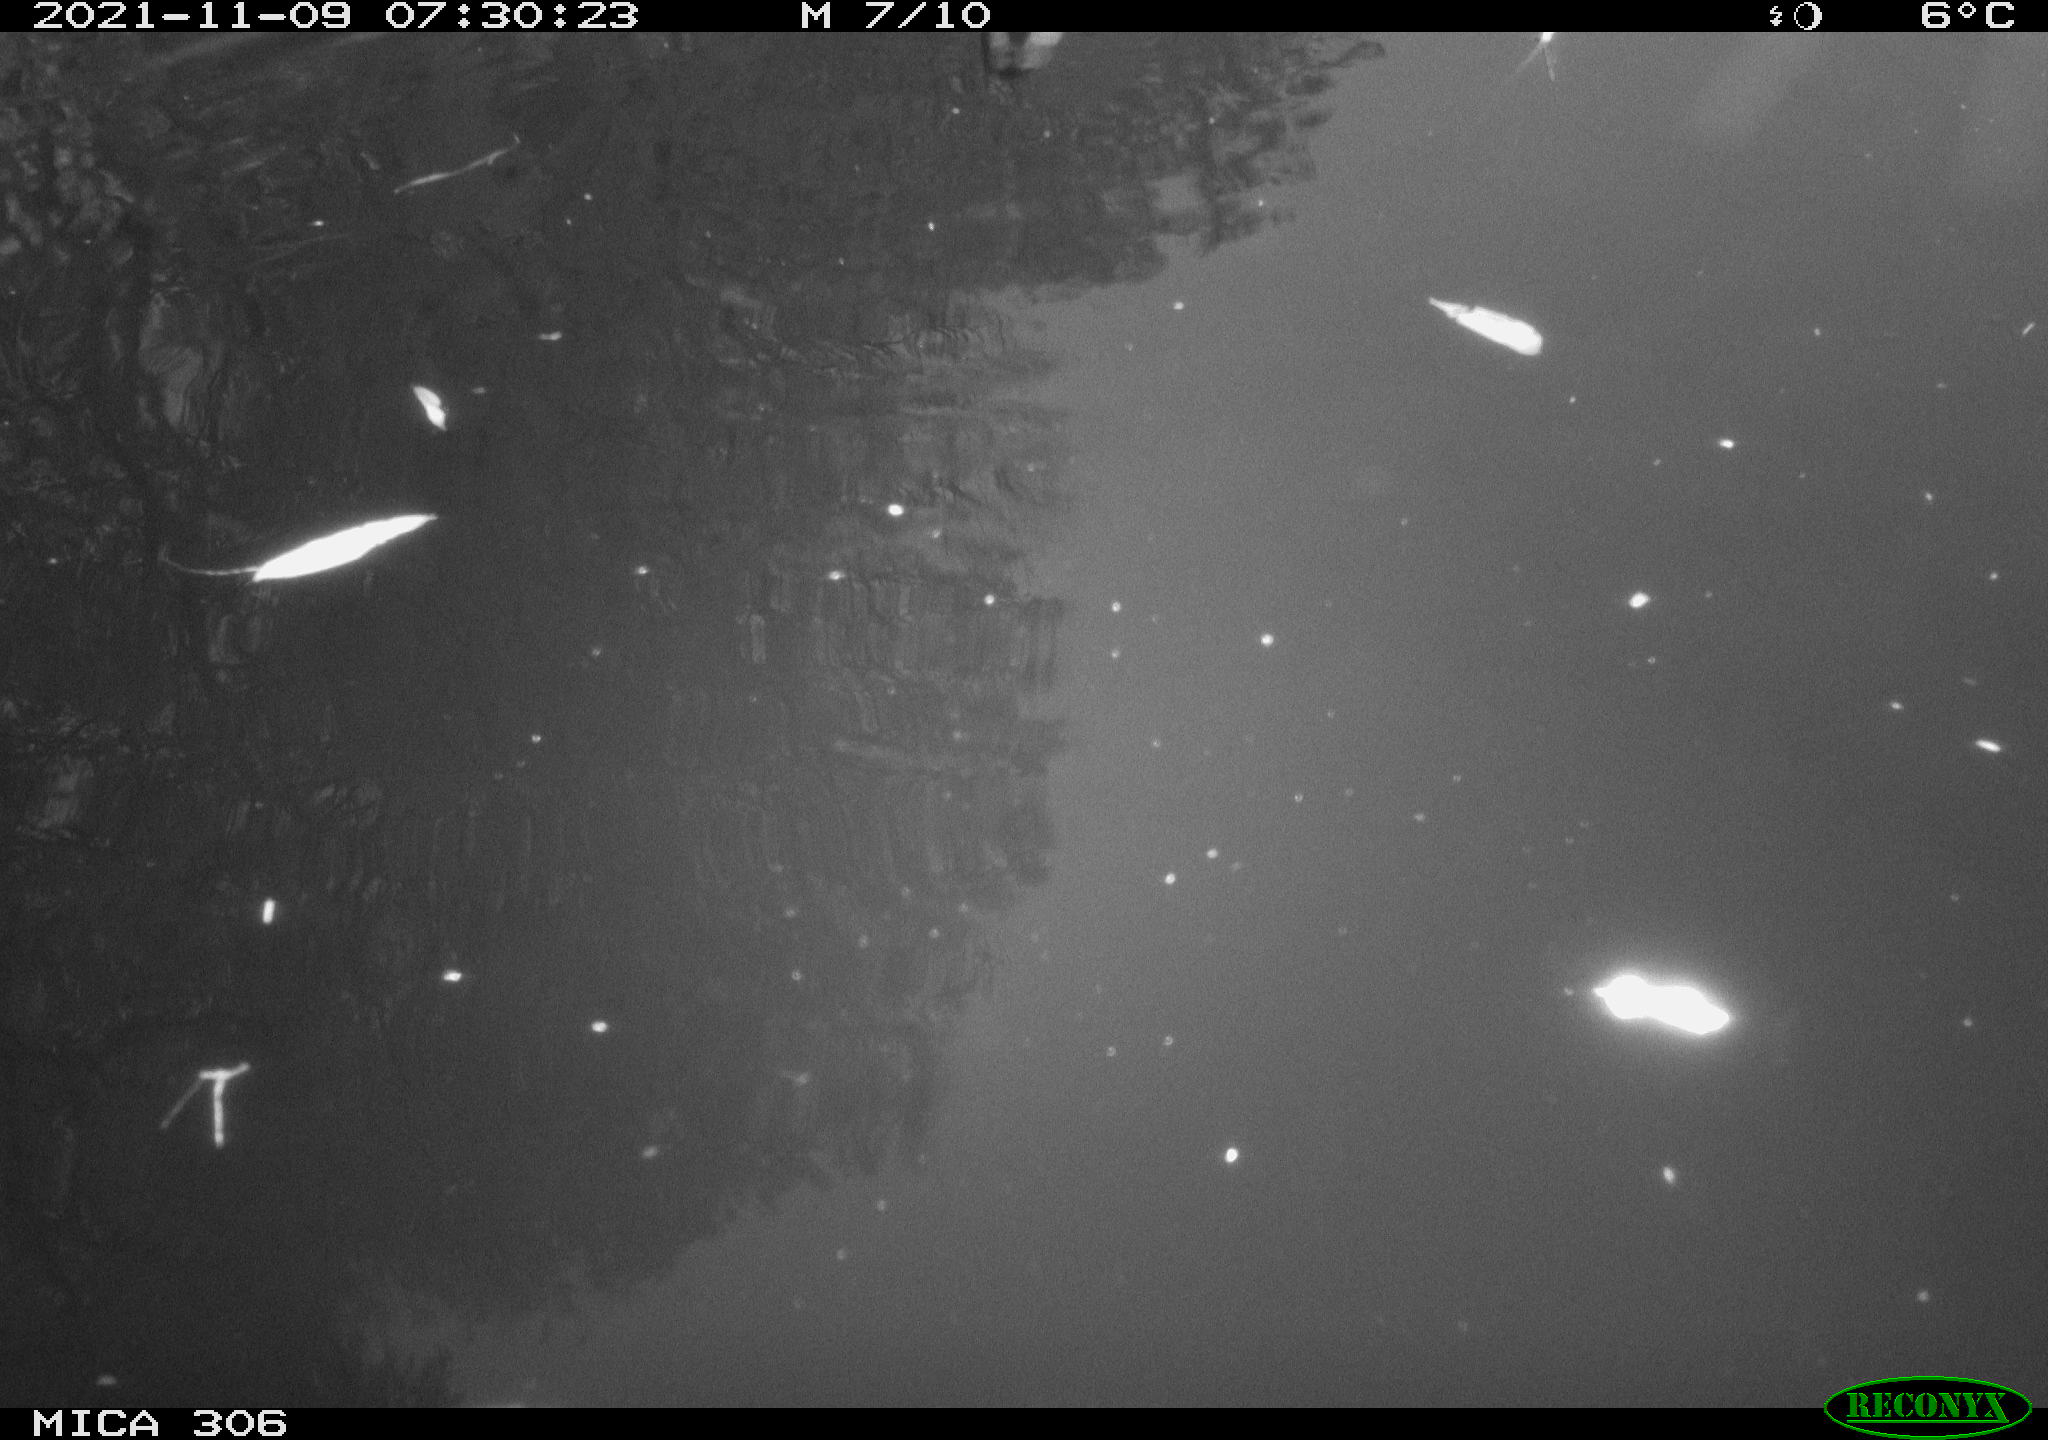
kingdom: Animalia
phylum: Chordata
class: Aves
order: Gruiformes
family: Rallidae
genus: Gallinula
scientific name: Gallinula chloropus
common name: Common moorhen
